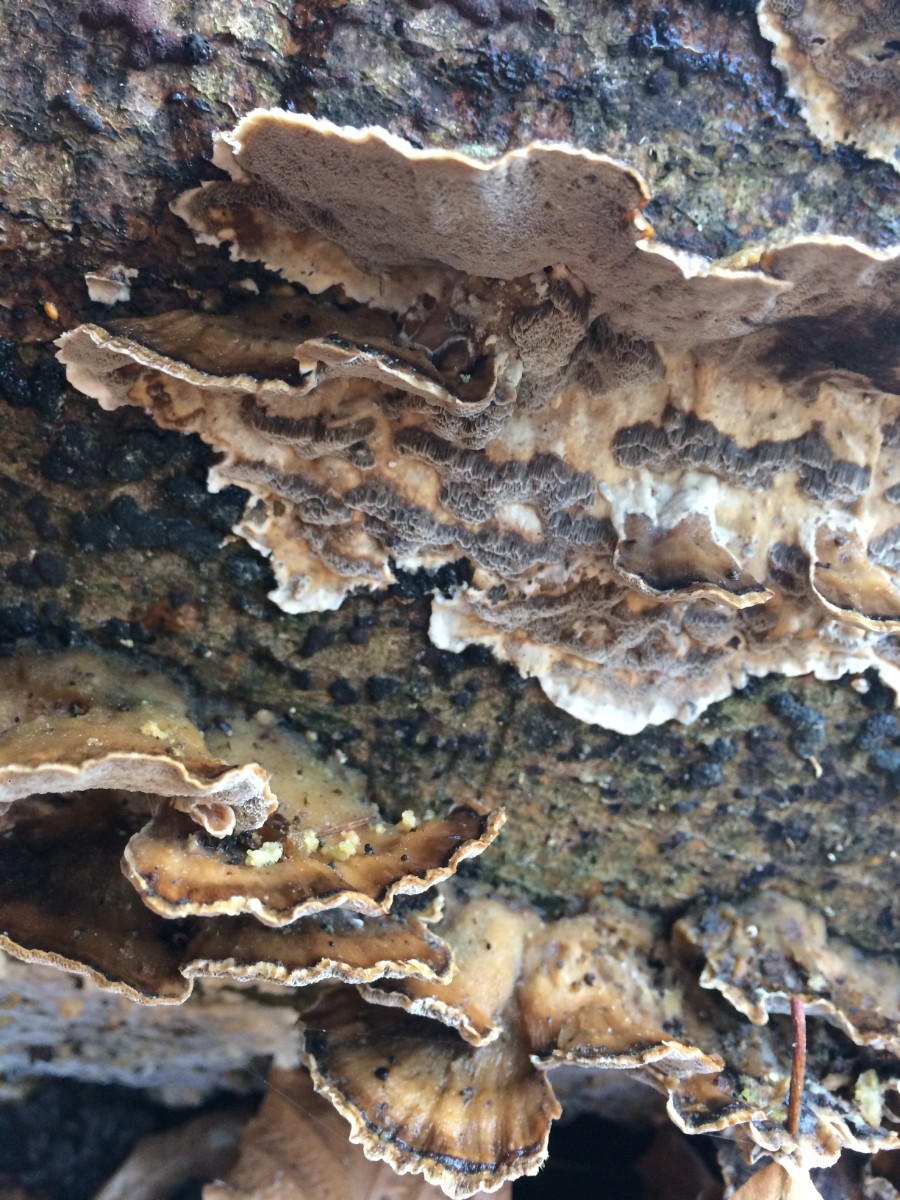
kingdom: Fungi
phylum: Basidiomycota
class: Agaricomycetes
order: Polyporales
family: Phanerochaetaceae
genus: Bjerkandera
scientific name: Bjerkandera adusta
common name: sveden sodporesvamp
